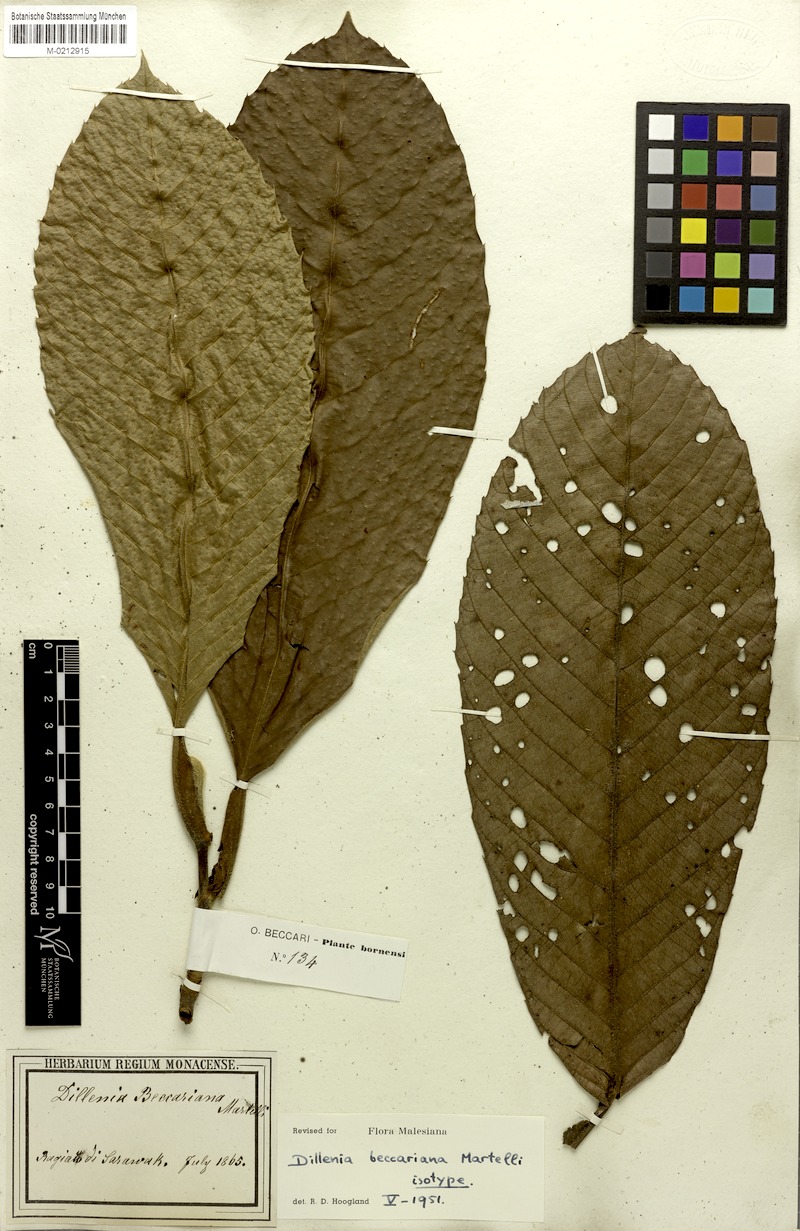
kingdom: Plantae
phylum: Tracheophyta
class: Magnoliopsida
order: Dilleniales
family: Dilleniaceae
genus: Dillenia
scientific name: Dillenia beccariana
